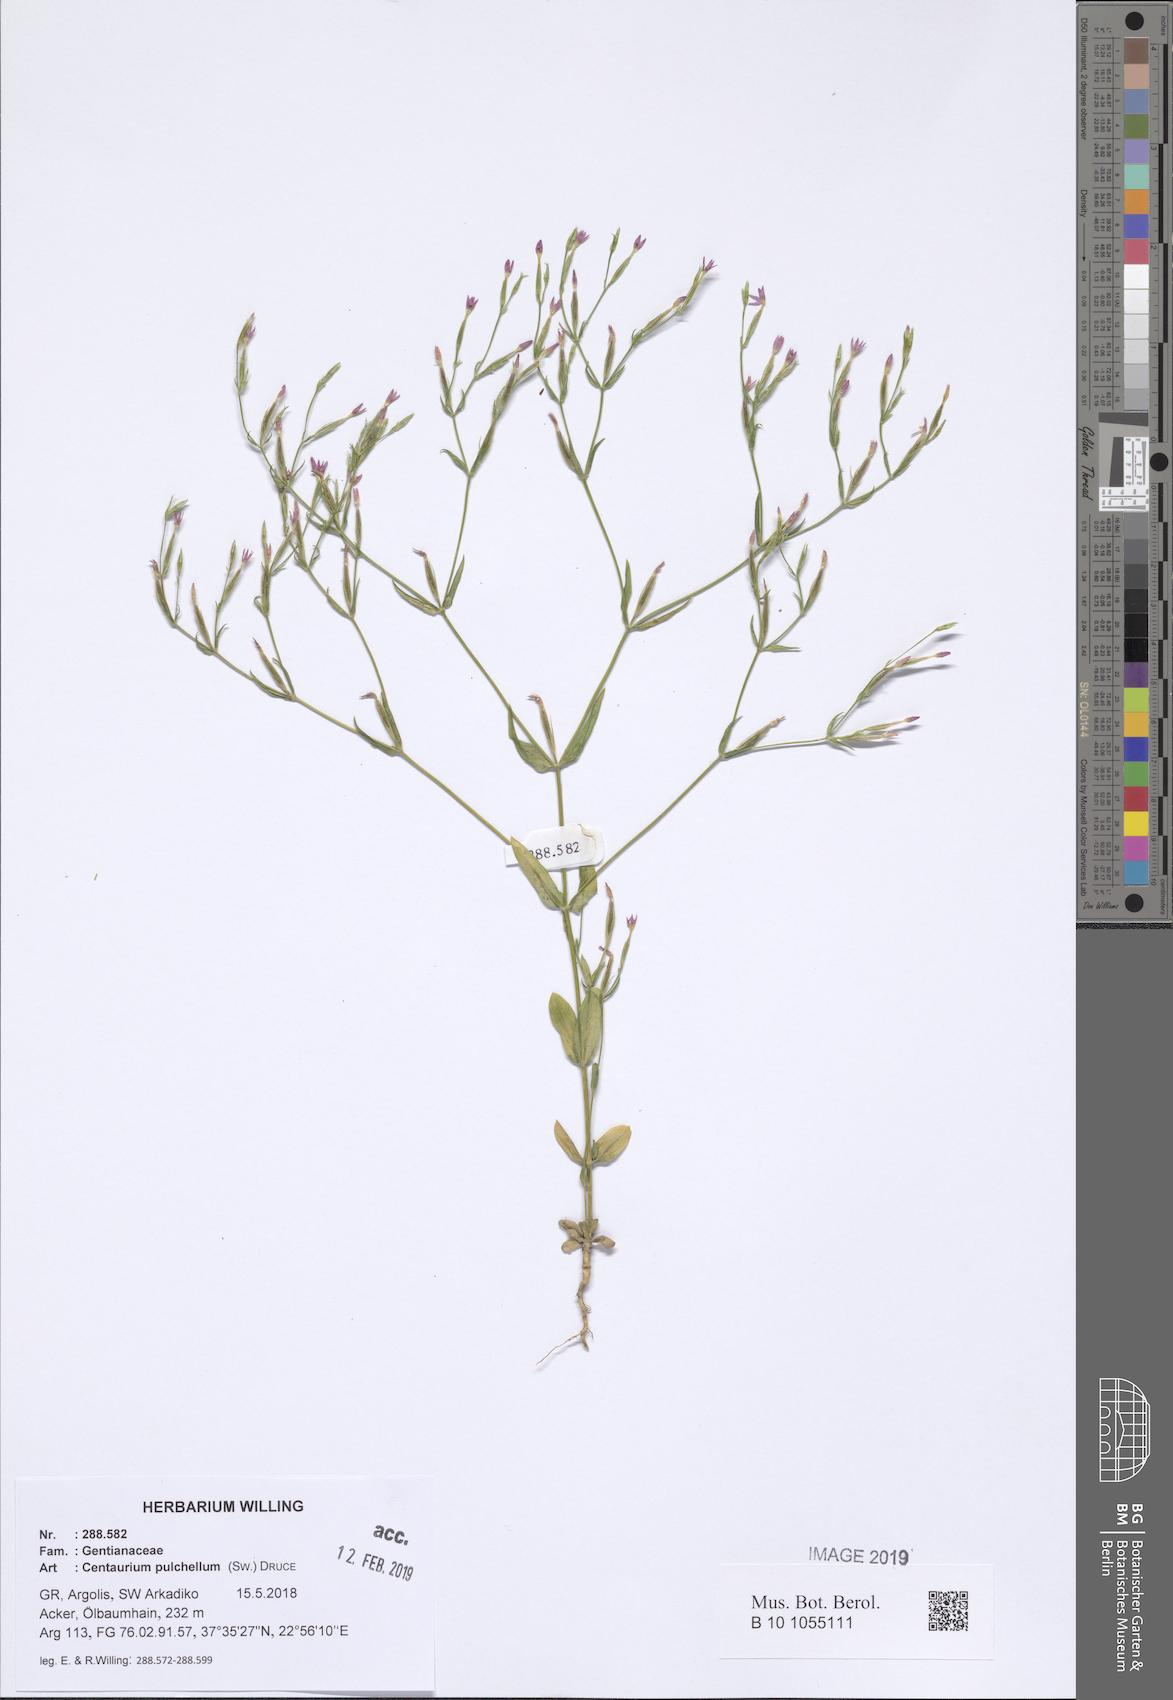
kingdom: Plantae
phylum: Tracheophyta
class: Magnoliopsida
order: Gentianales
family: Gentianaceae
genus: Centaurium
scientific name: Centaurium pulchellum
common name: Lesser centaury
